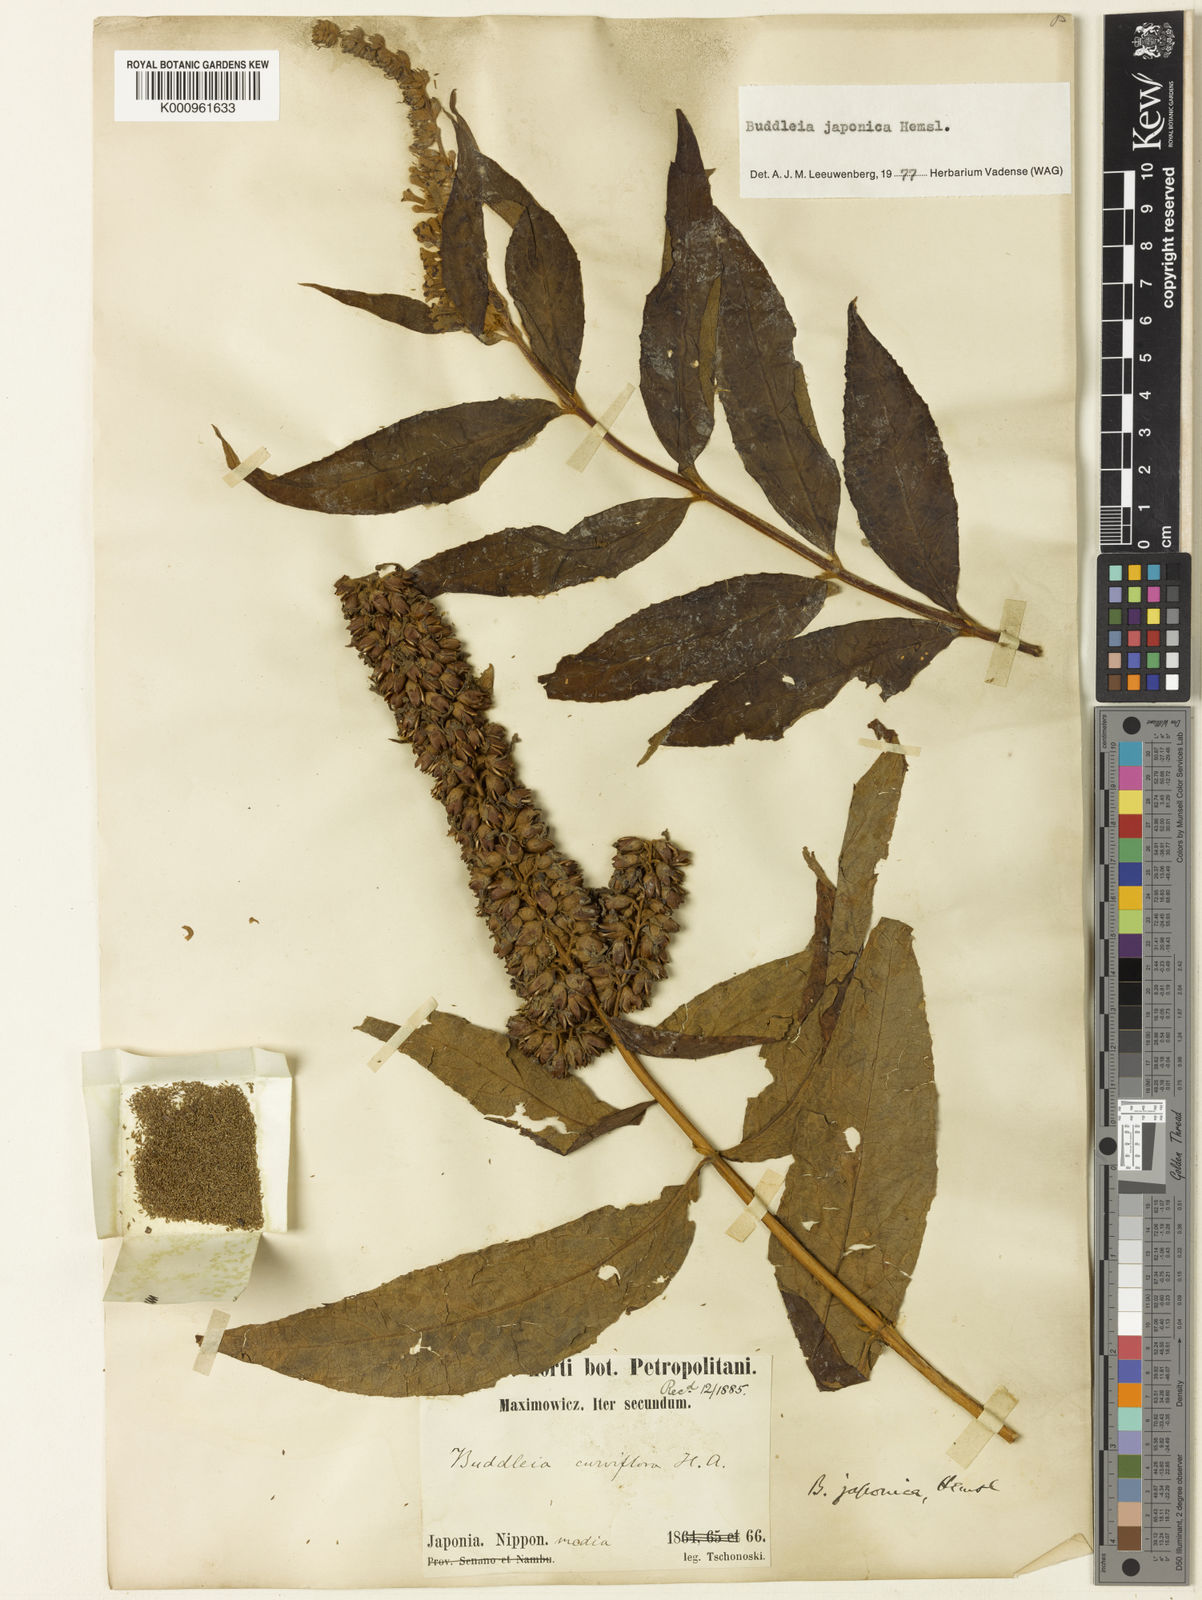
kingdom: Plantae
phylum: Tracheophyta
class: Magnoliopsida
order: Lamiales
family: Scrophulariaceae
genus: Buddleja
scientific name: Buddleja japonica
